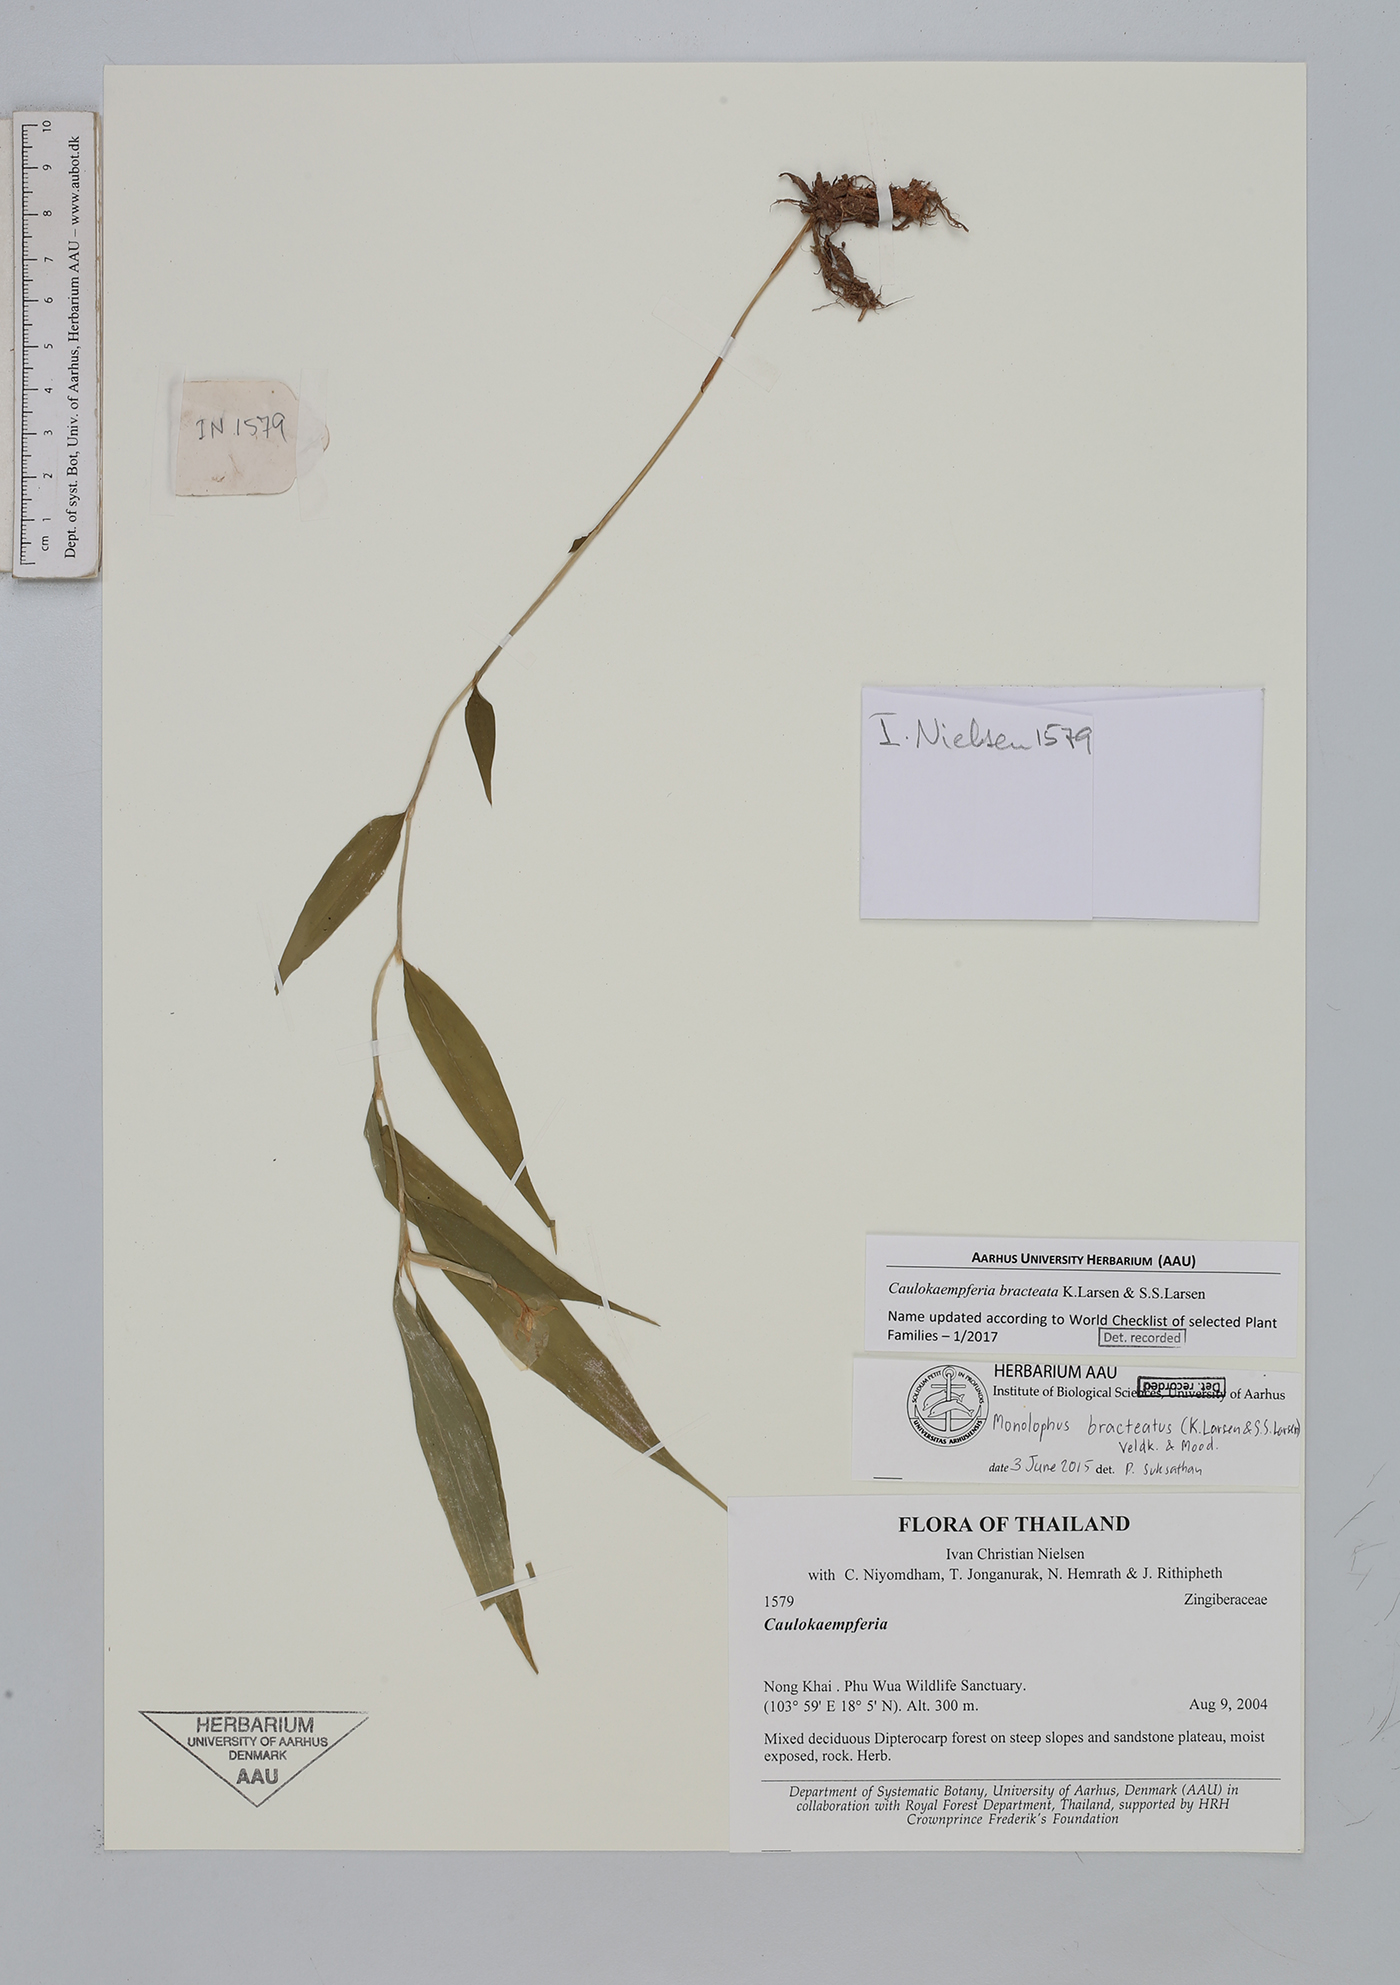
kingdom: Plantae
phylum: Tracheophyta
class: Liliopsida
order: Zingiberales
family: Zingiberaceae
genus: Caulokaempferia
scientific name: Caulokaempferia bracteata
